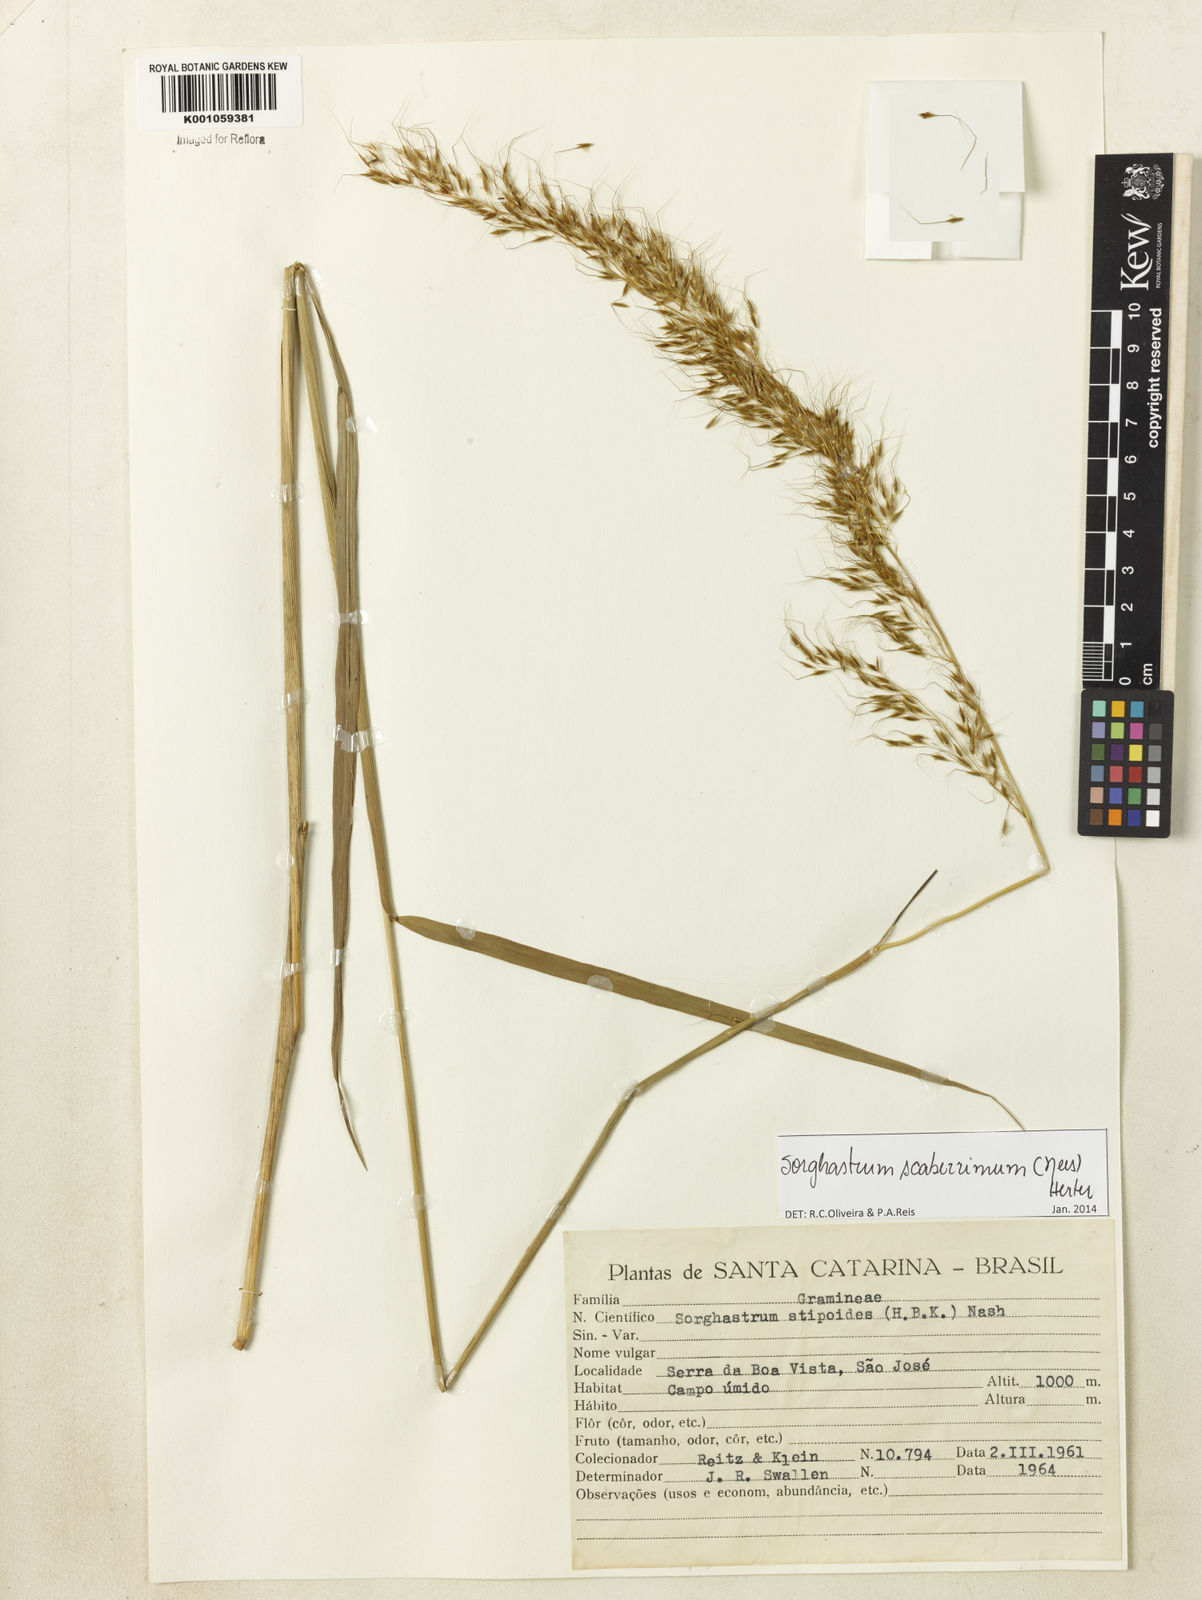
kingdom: Plantae
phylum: Tracheophyta
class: Liliopsida
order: Poales
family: Poaceae
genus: Sorghastrum
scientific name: Sorghastrum scaberrimum
